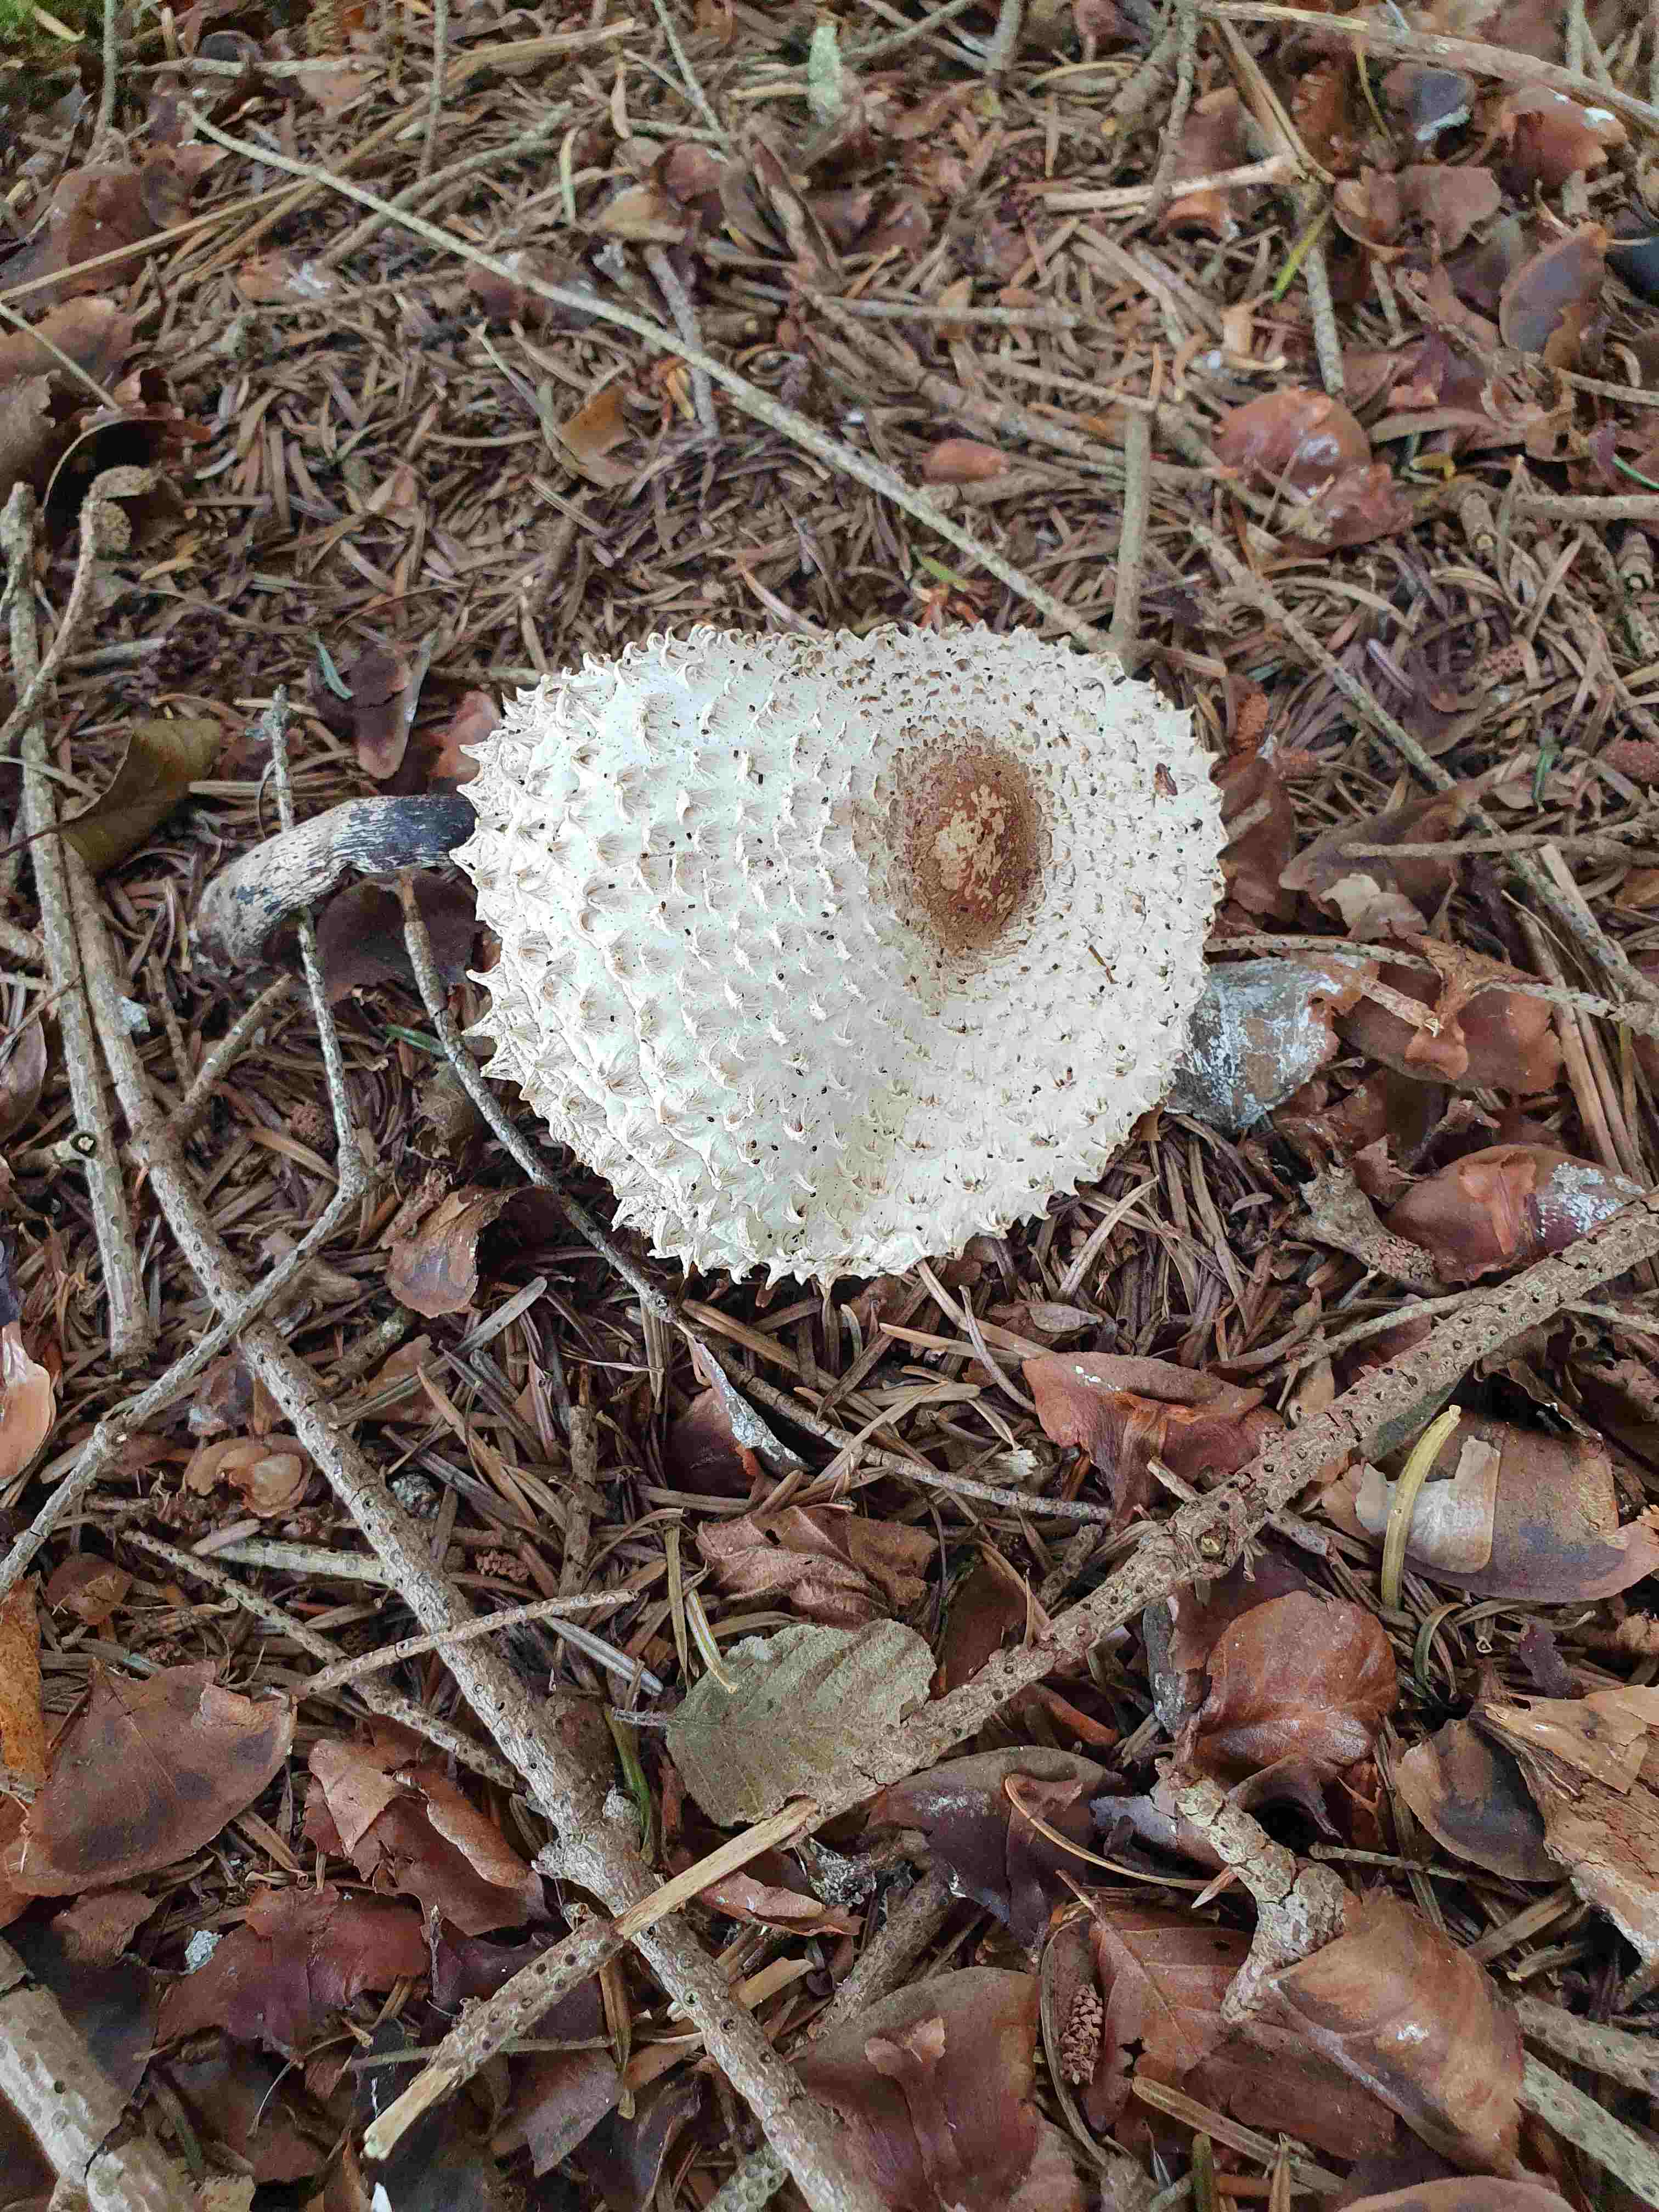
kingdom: Fungi
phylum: Basidiomycota
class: Agaricomycetes
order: Agaricales
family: Agaricaceae
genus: Leucoagaricus
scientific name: Leucoagaricus nympharum
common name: gran-silkehat
